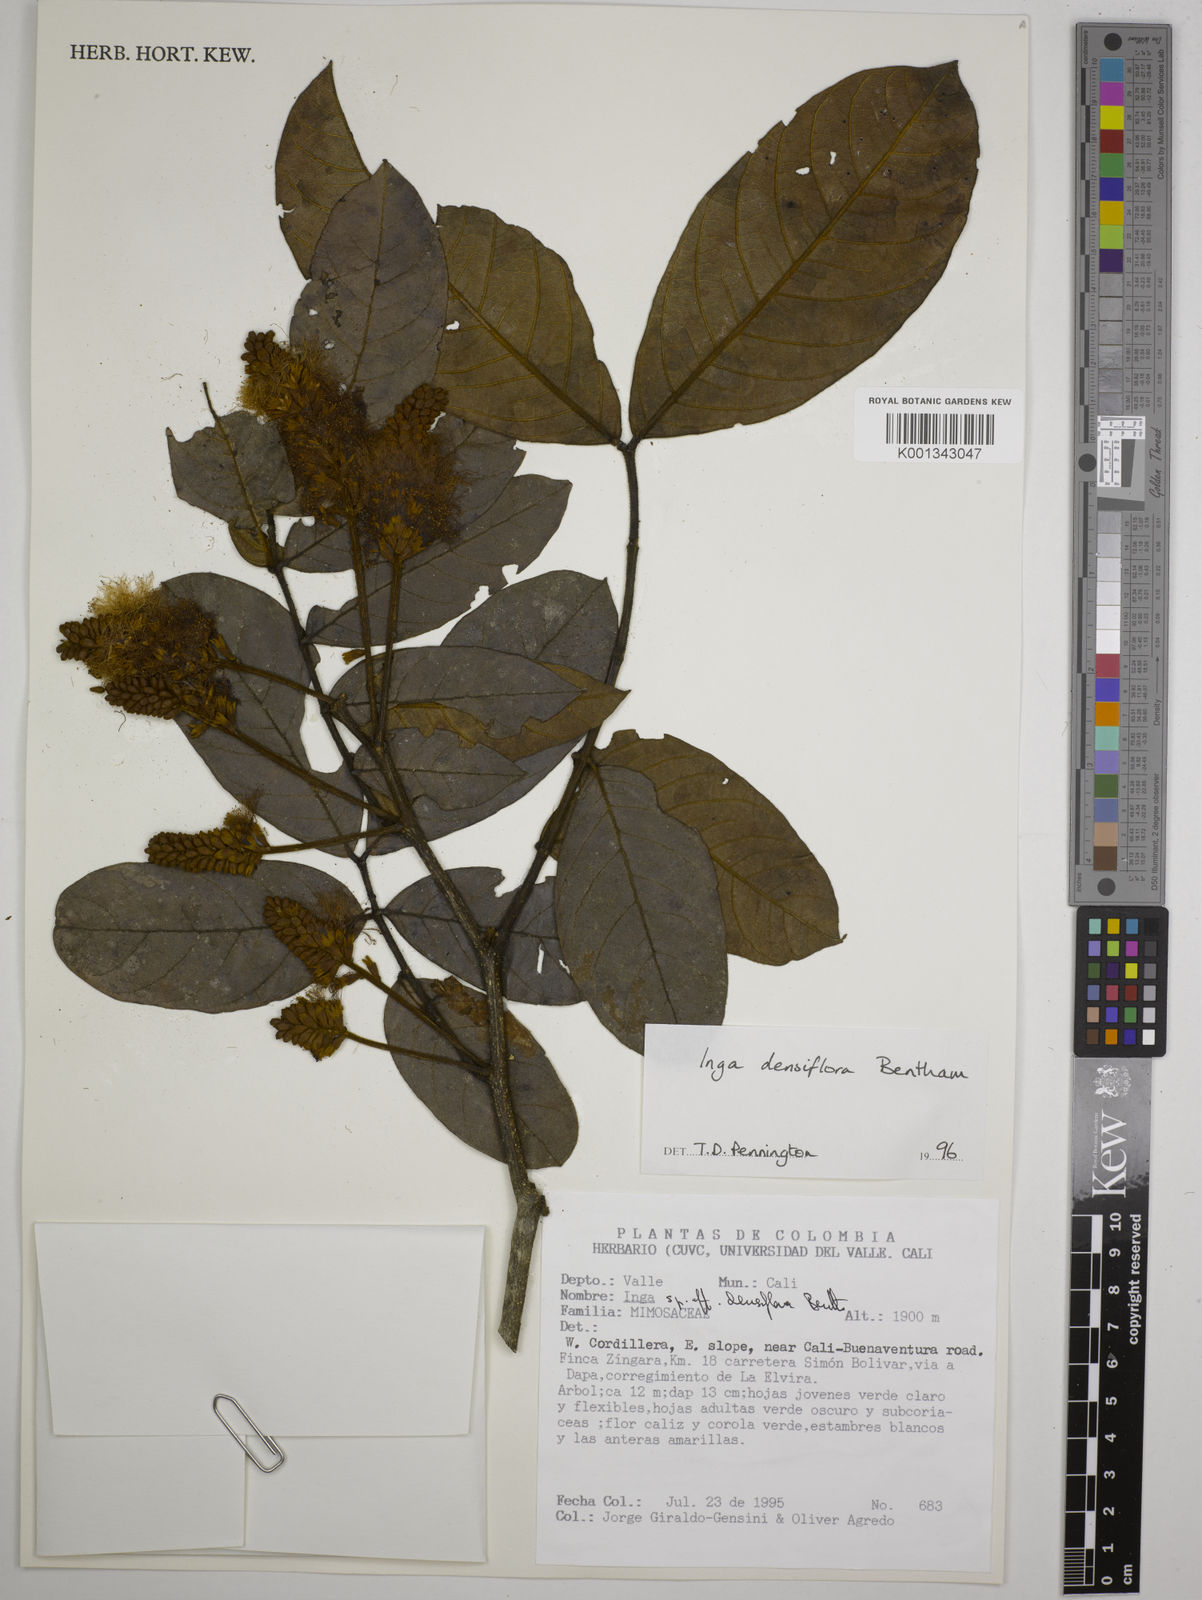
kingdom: Plantae
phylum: Tracheophyta
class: Magnoliopsida
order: Fabales
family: Fabaceae
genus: Inga
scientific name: Inga densiflora
